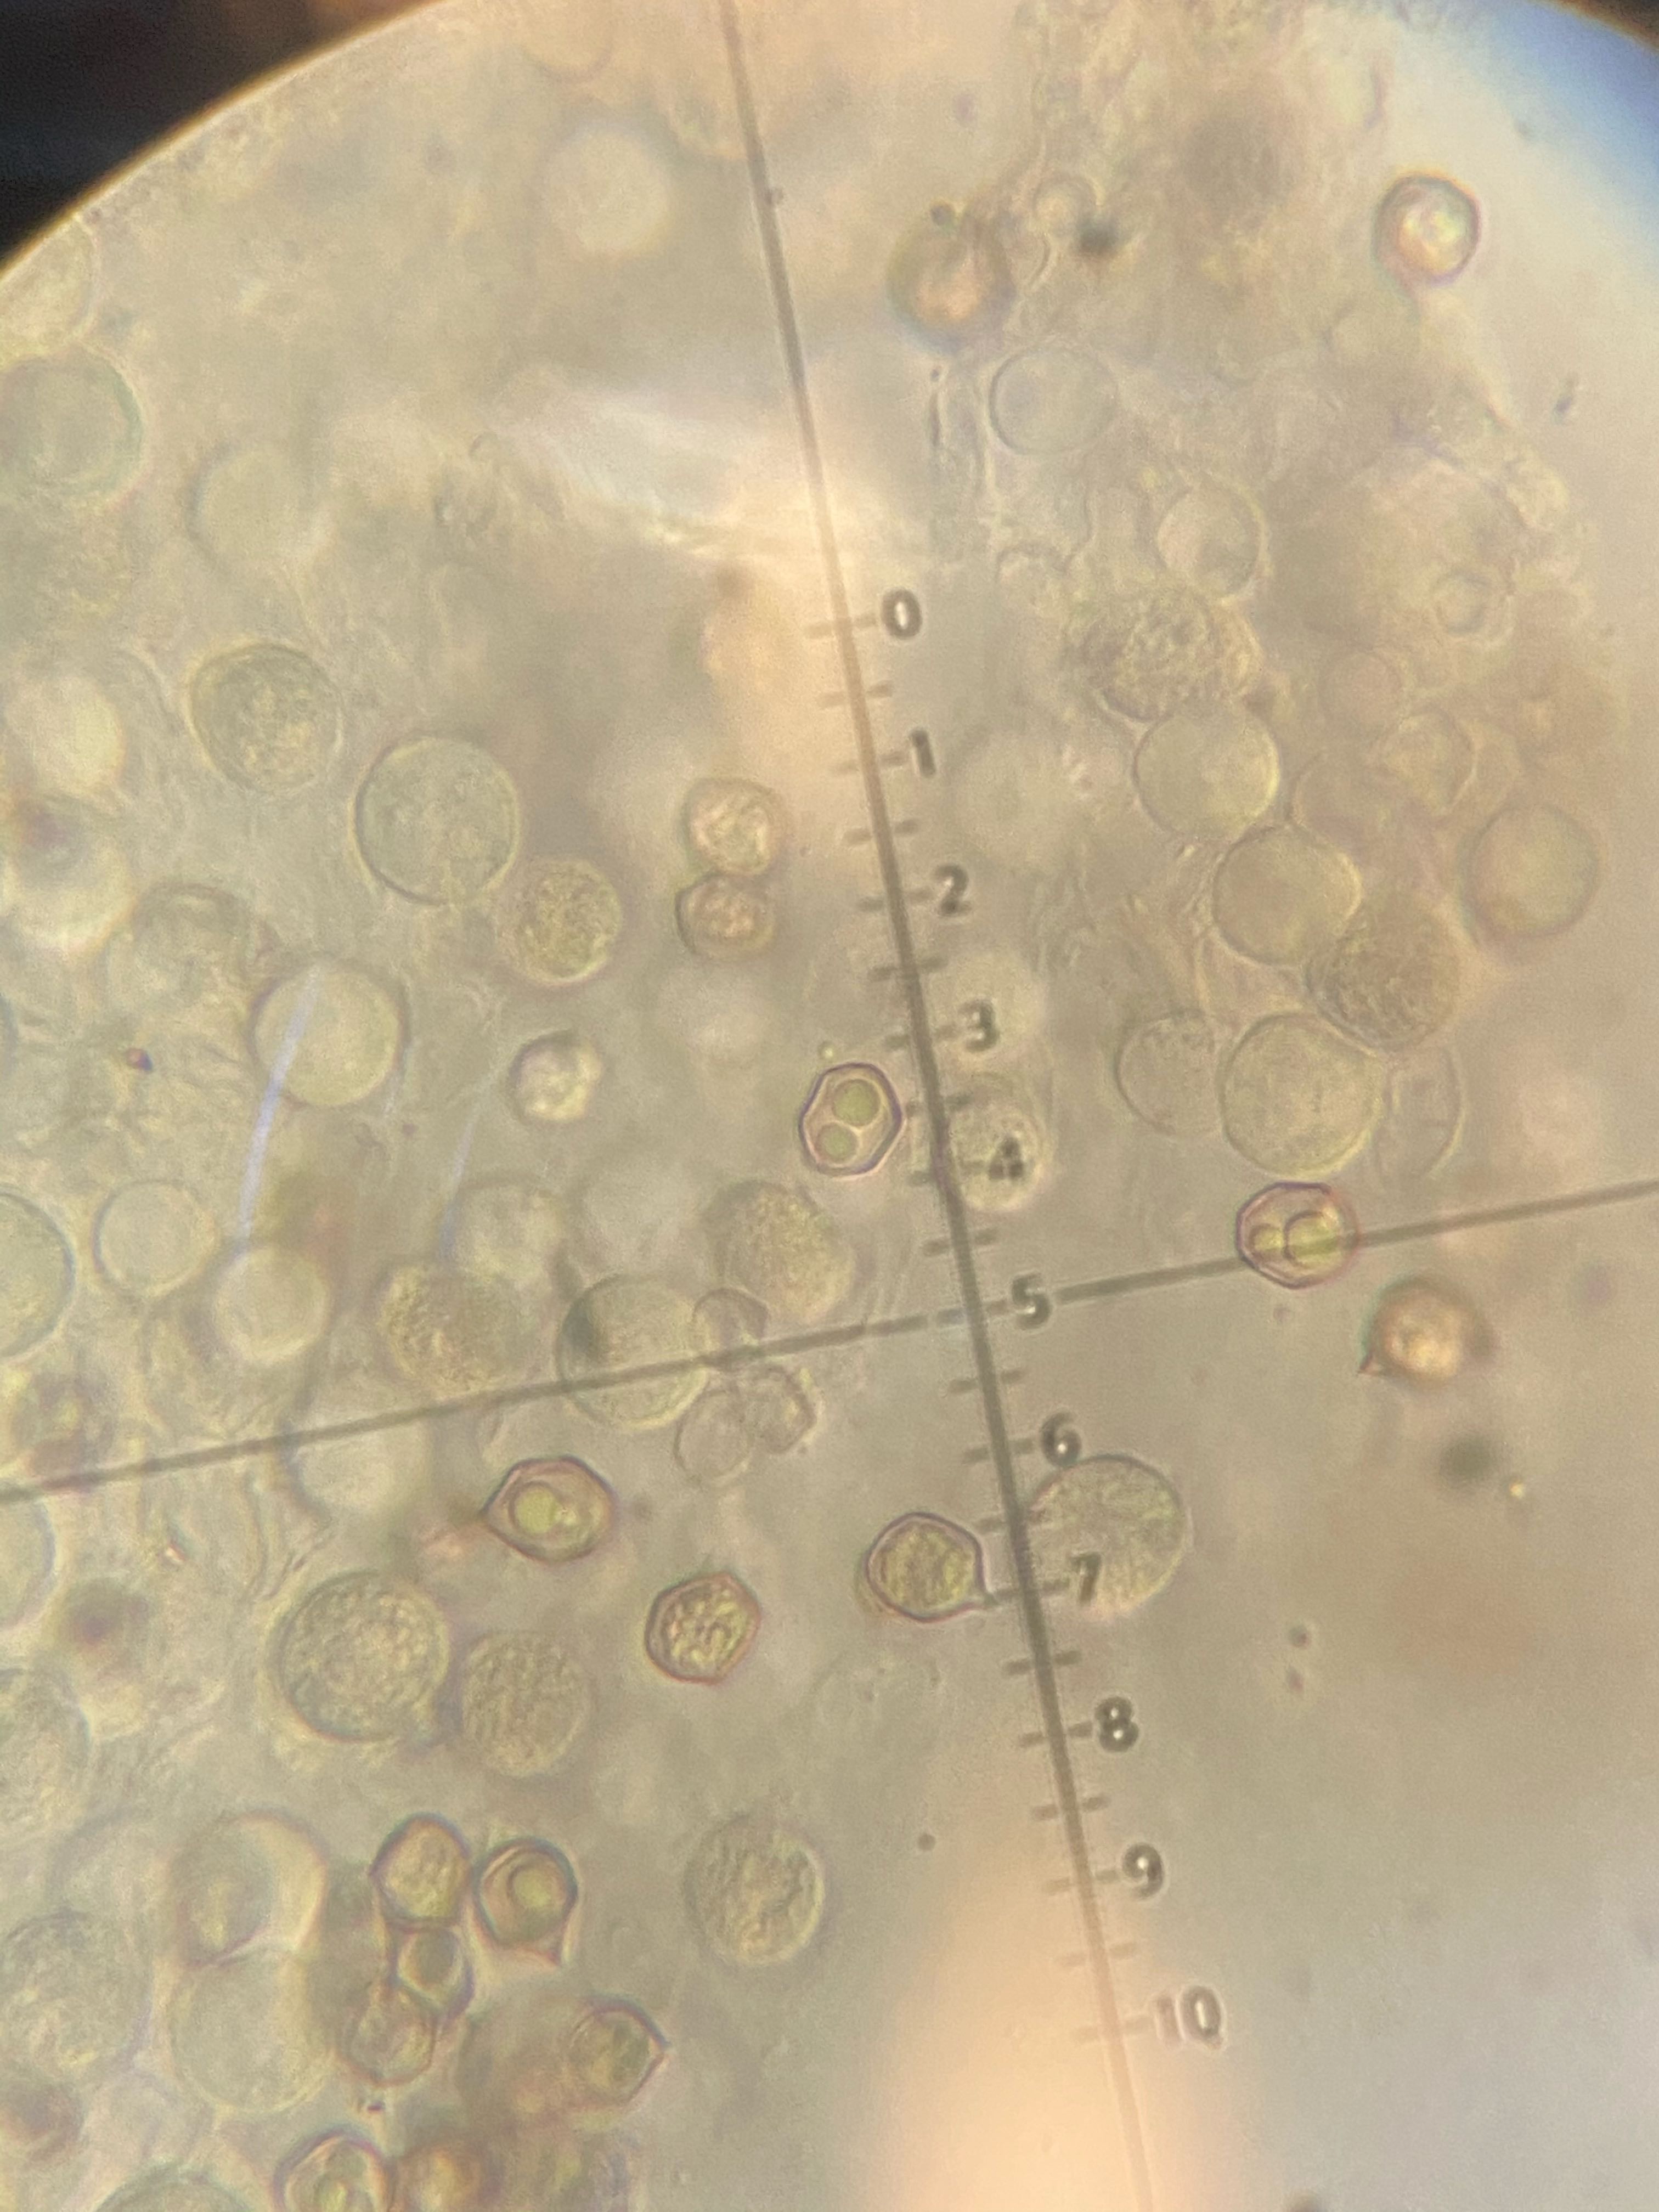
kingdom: Fungi
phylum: Basidiomycota
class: Agaricomycetes
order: Agaricales
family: Entolomataceae
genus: Entoloma
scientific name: Entoloma
